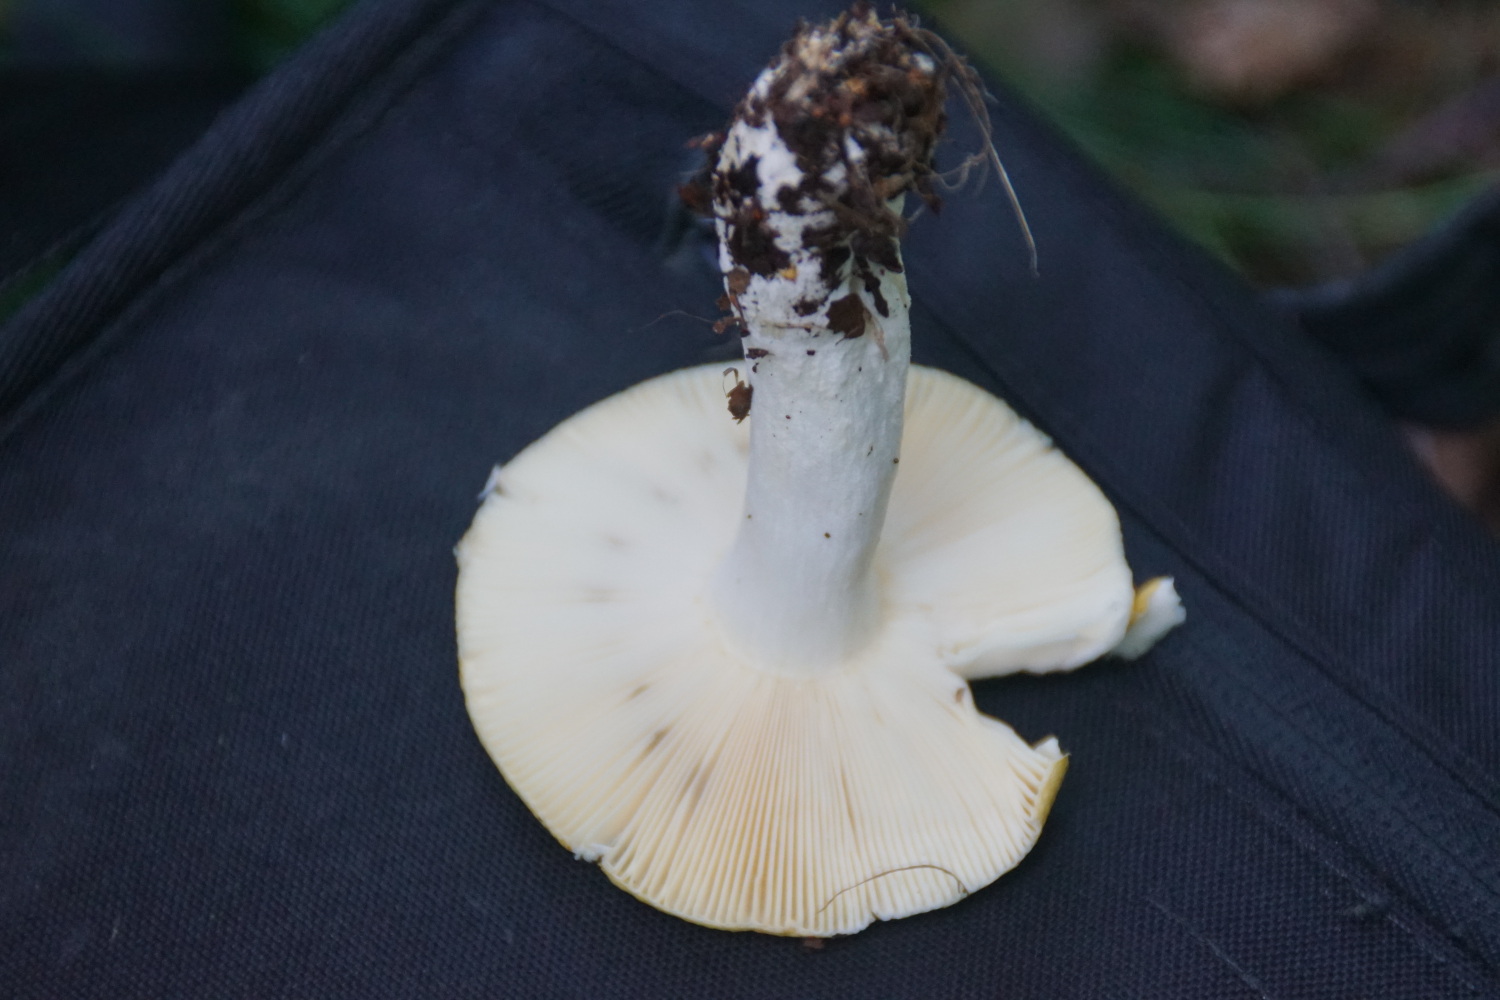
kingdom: Fungi
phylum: Basidiomycota
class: Agaricomycetes
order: Russulales
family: Russulaceae
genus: Russula
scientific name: Russula claroflava
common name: birke-skørhat
